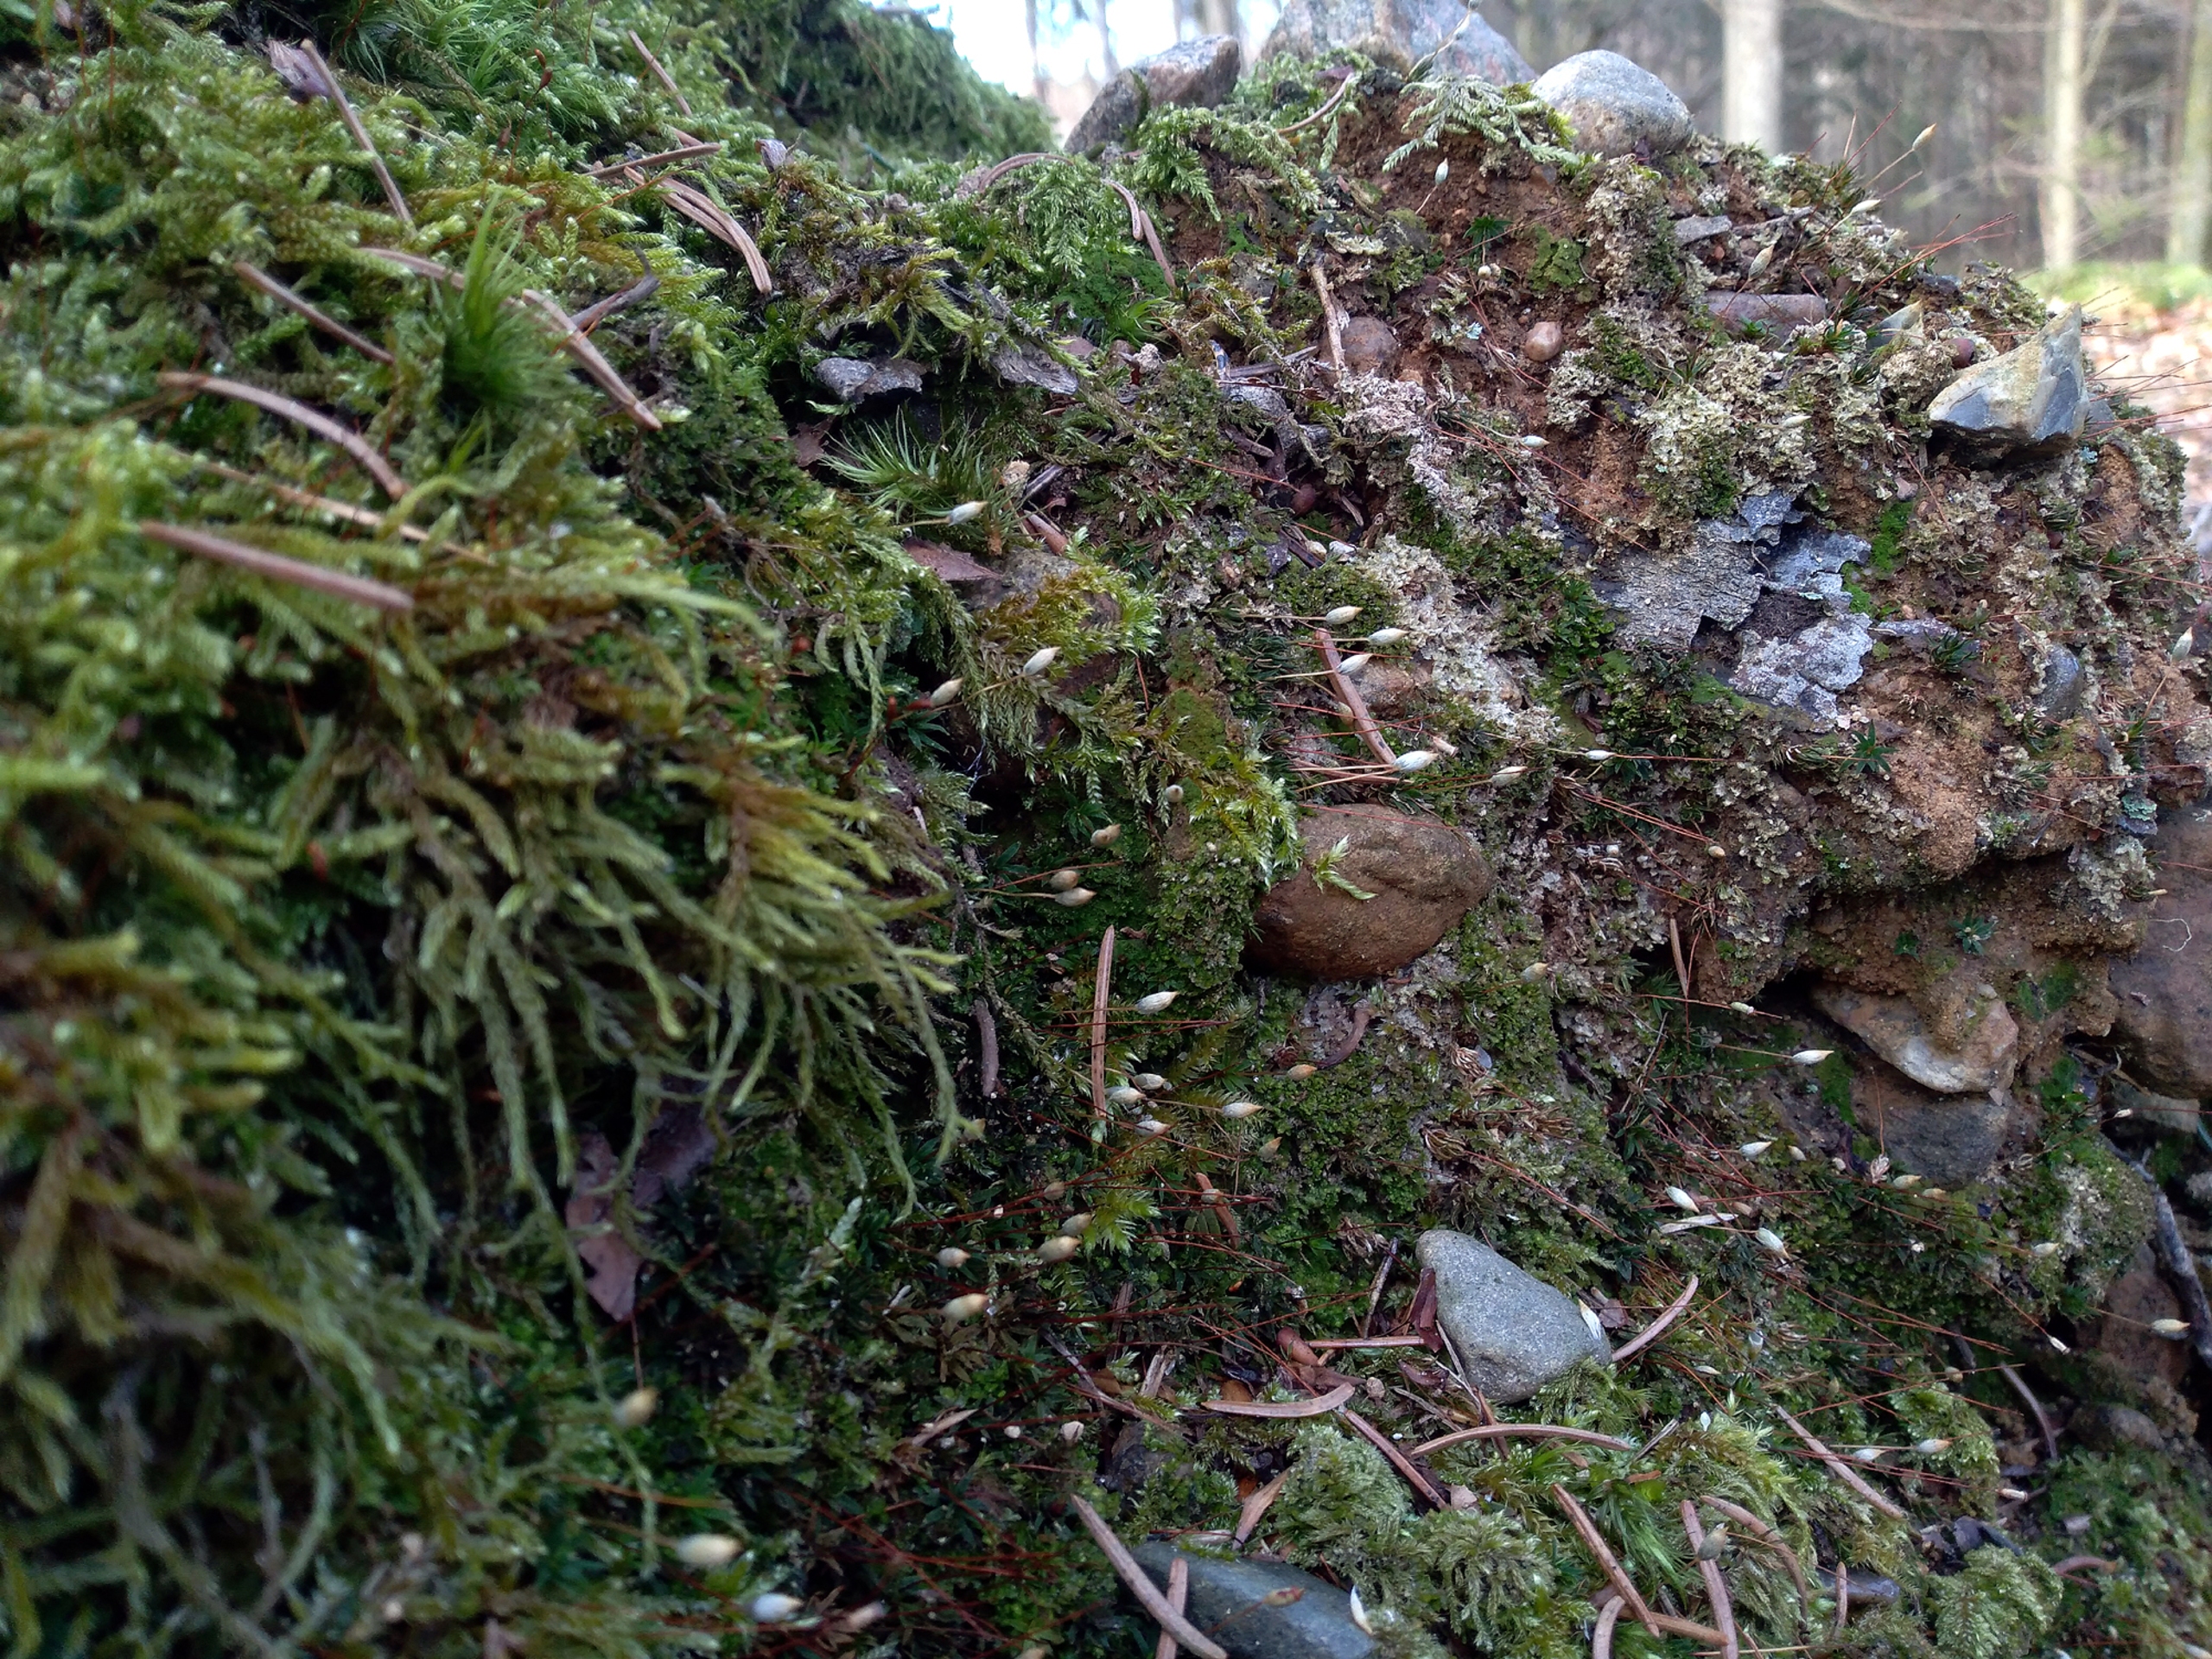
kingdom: Plantae
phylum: Bryophyta
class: Polytrichopsida
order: Polytrichales
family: Polytrichaceae
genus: Pogonatum
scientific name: Pogonatum aloides
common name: Smal urnekapsel
